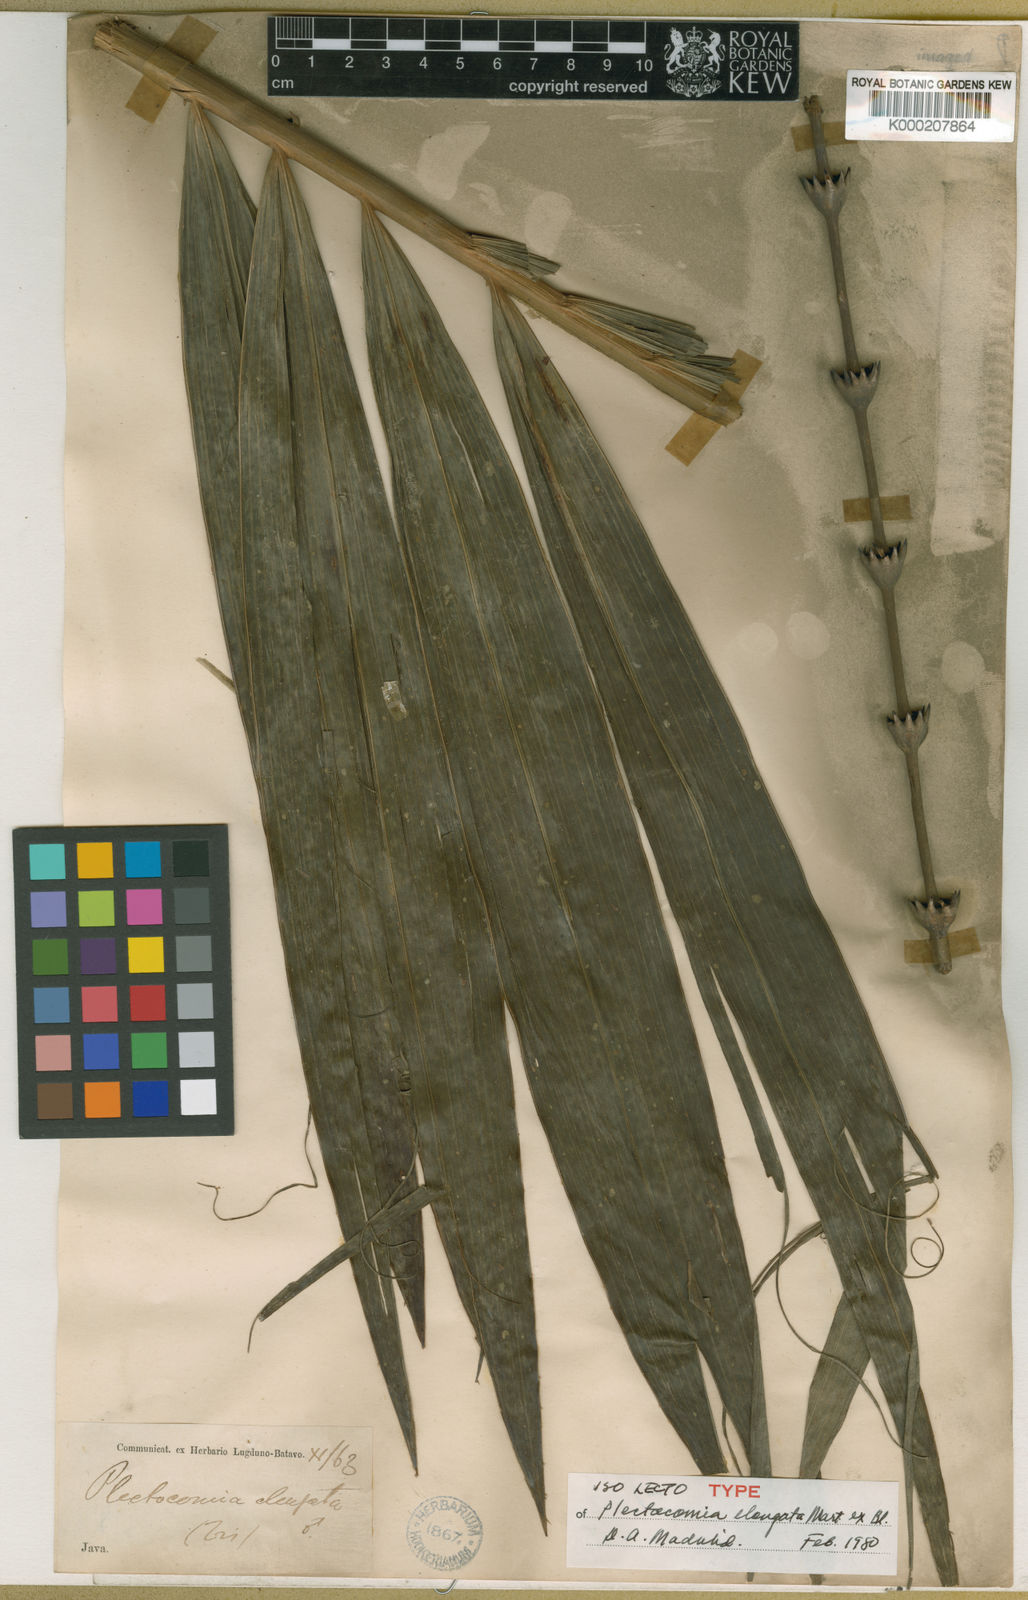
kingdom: Plantae
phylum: Tracheophyta
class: Liliopsida
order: Arecales
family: Arecaceae
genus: Plectocomia
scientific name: Plectocomia elongata
